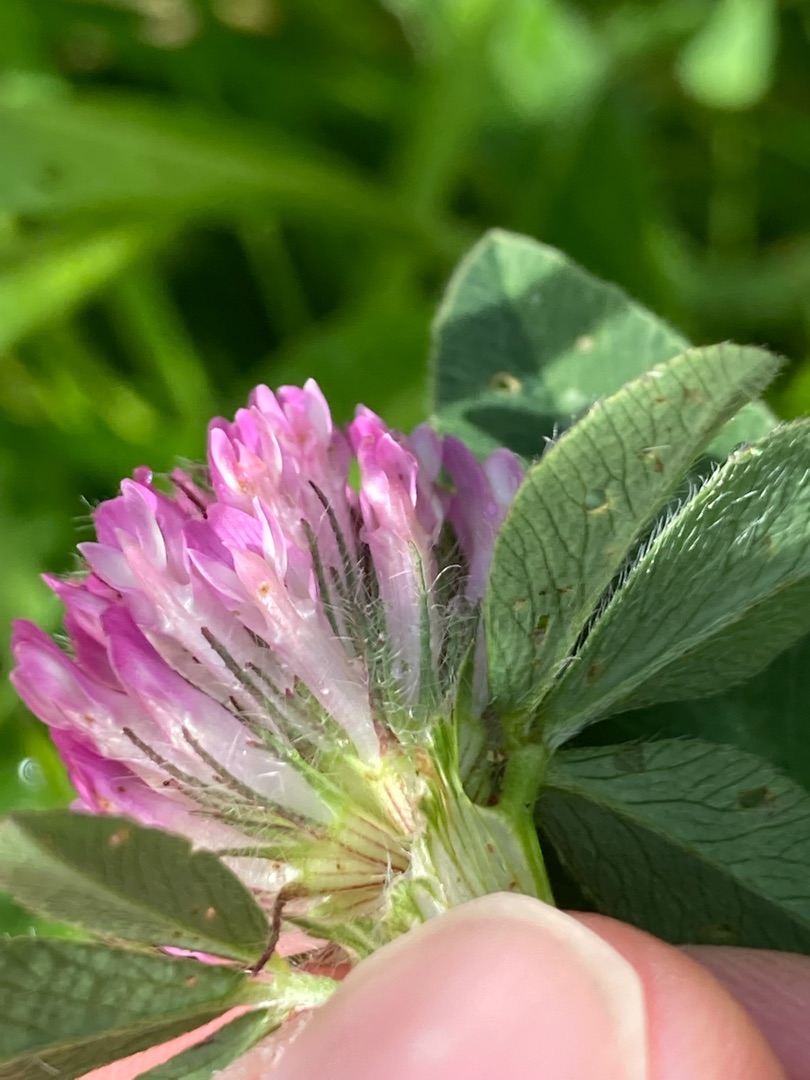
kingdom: Plantae
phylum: Tracheophyta
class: Magnoliopsida
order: Fabales
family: Fabaceae
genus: Trifolium
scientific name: Trifolium pratense
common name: Rød-kløver
